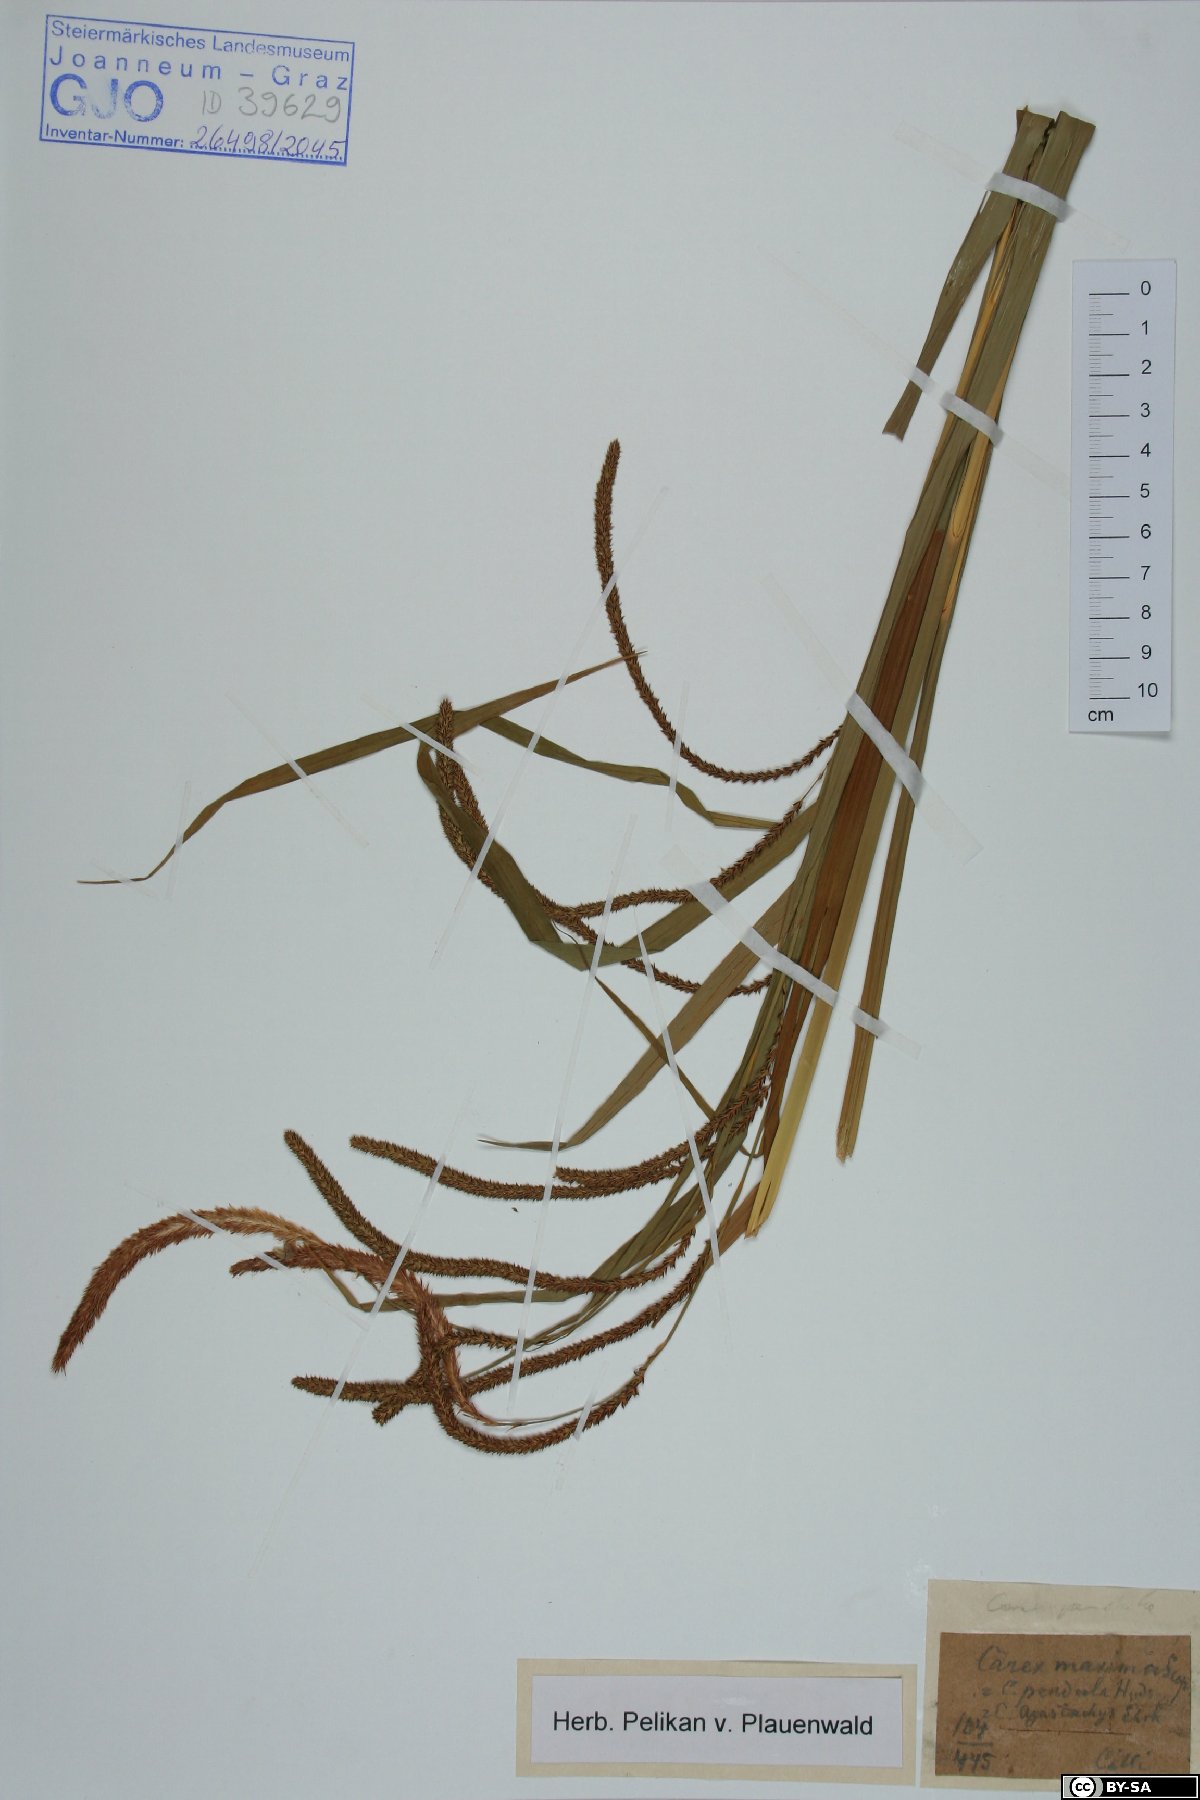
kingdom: Plantae
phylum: Tracheophyta
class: Liliopsida
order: Poales
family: Cyperaceae
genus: Carex
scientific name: Carex pendula
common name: Pendulous sedge
